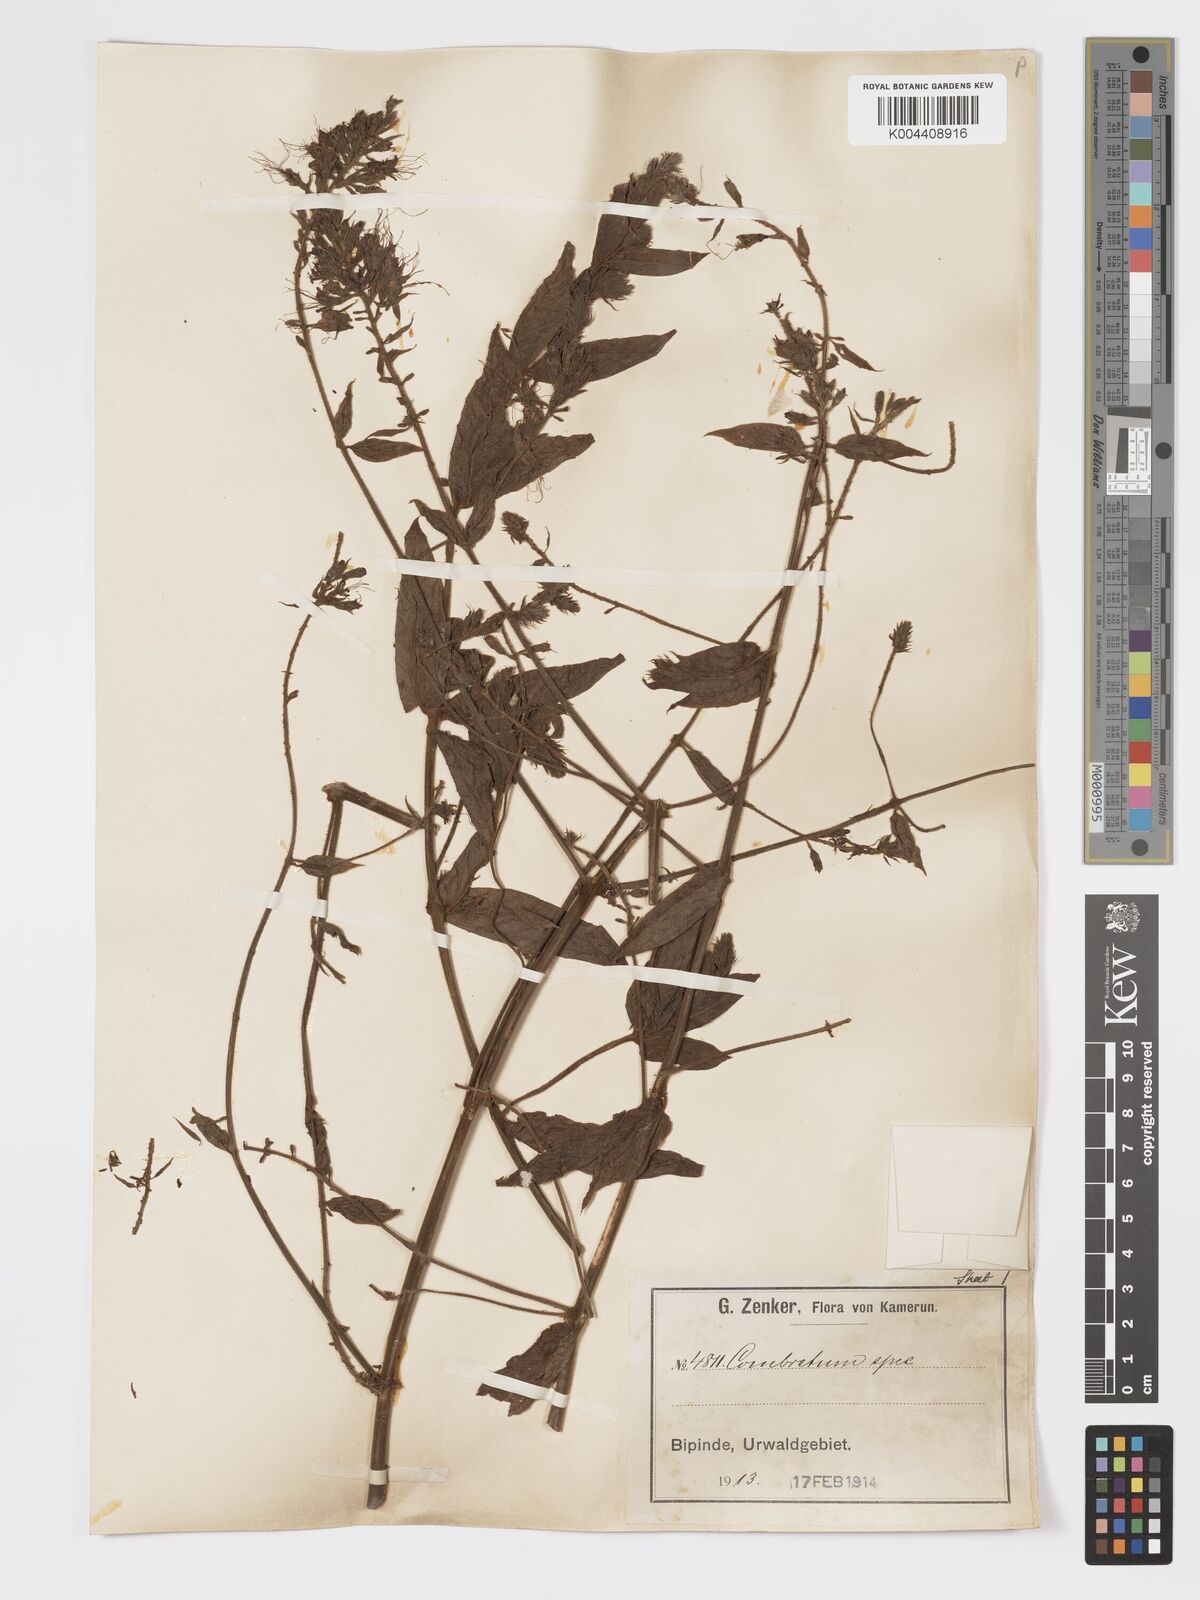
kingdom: Plantae
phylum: Tracheophyta
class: Magnoliopsida
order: Myrtales
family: Combretaceae
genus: Combretum
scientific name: Combretum
